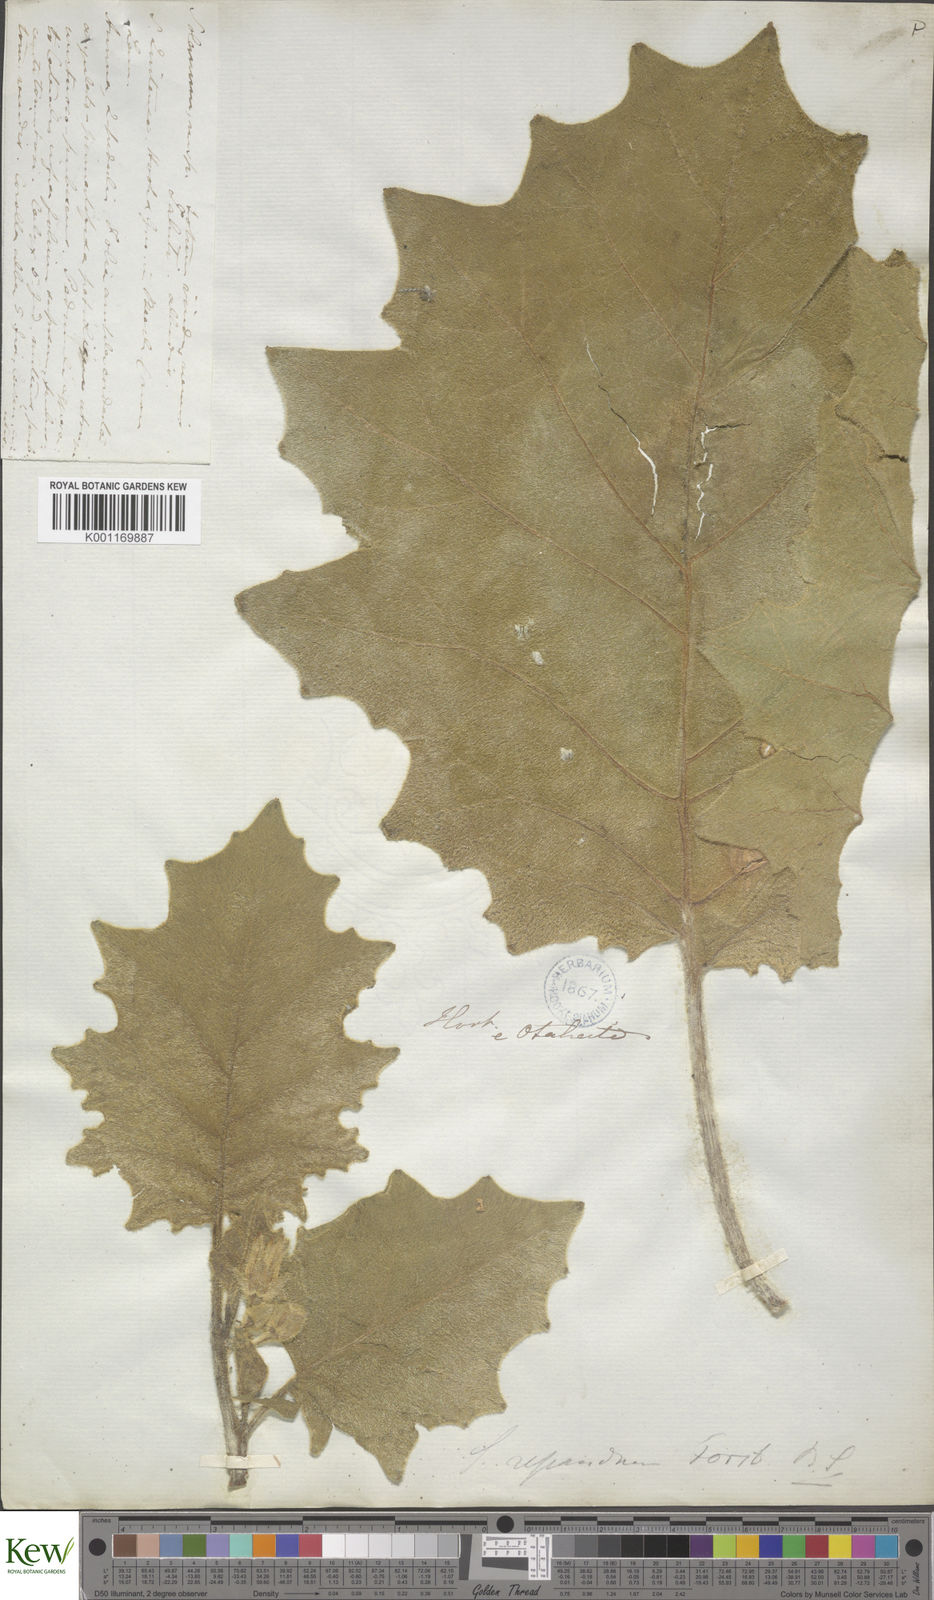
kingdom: Plantae
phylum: Tracheophyta
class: Magnoliopsida
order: Solanales
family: Solanaceae
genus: Solanum
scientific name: Solanum repandum
